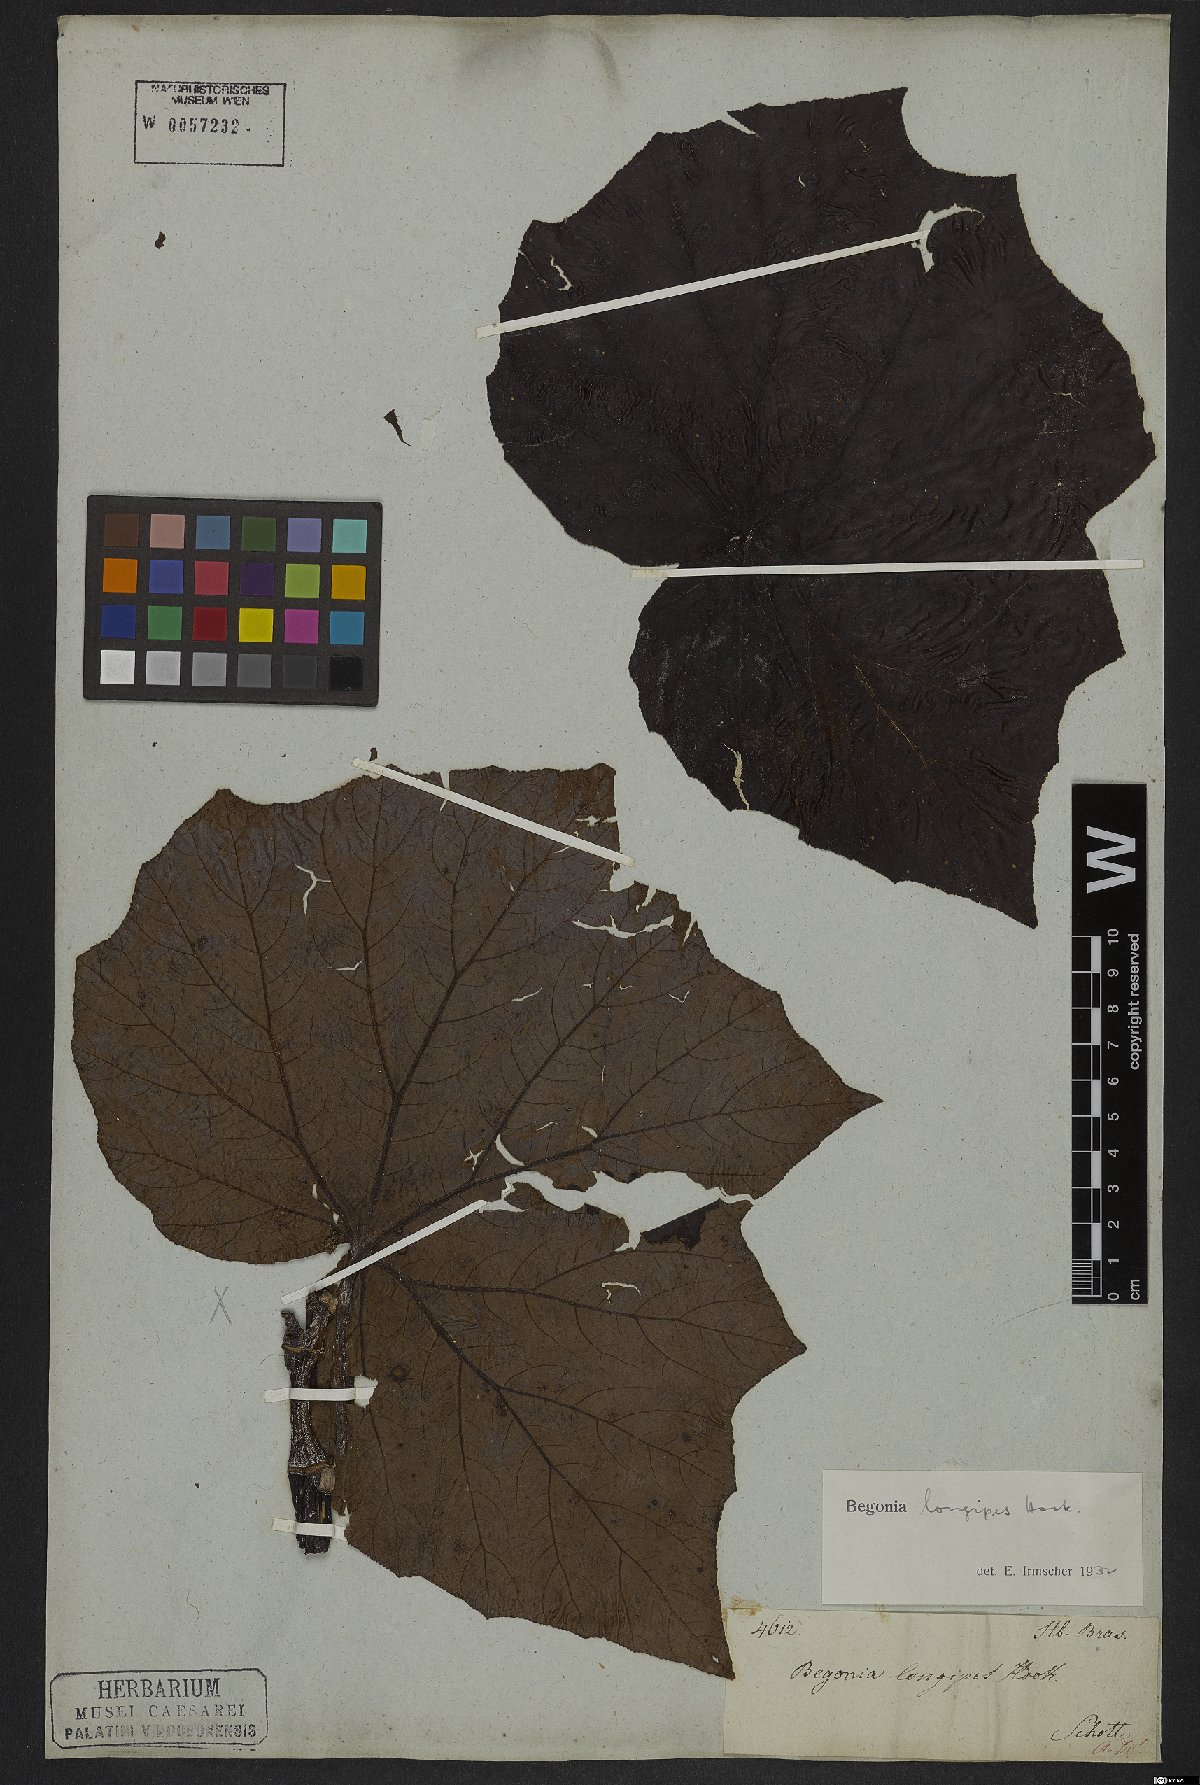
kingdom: Plantae
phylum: Tracheophyta
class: Magnoliopsida
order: Cucurbitales
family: Begoniaceae
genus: Begonia
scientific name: Begonia reniformis
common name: Grapeleaf begonia
